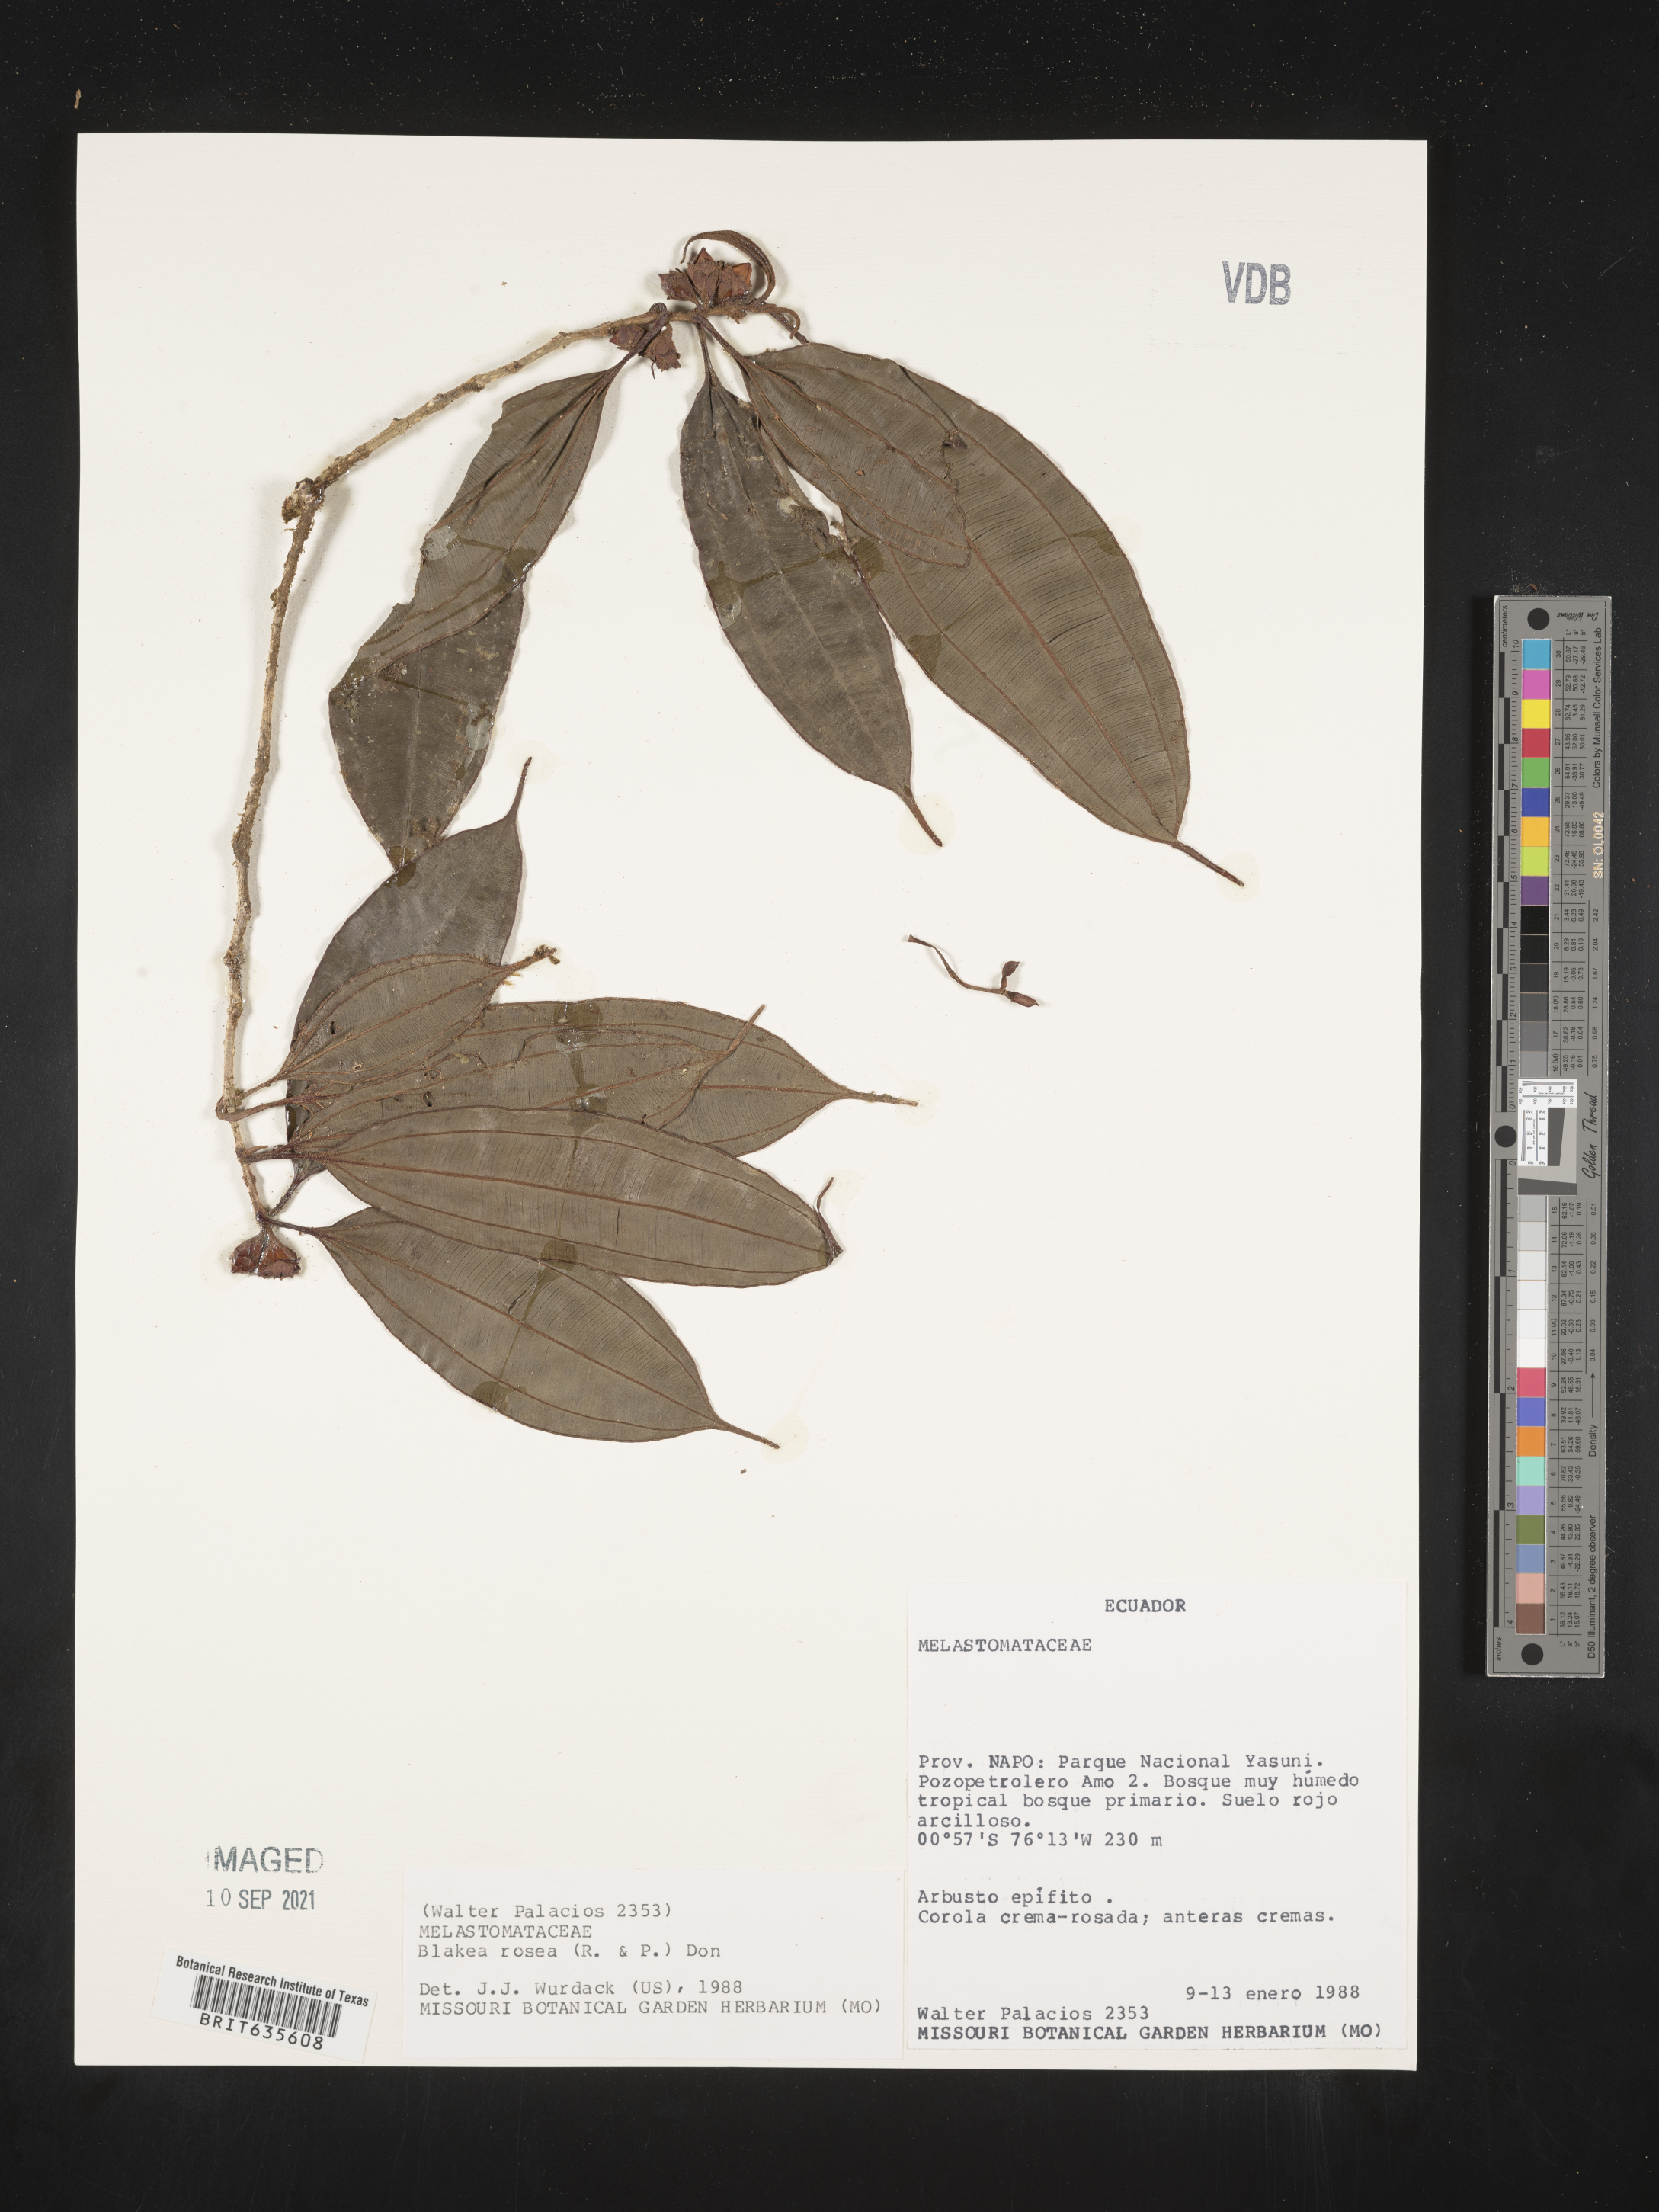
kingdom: Plantae
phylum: Tracheophyta
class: Magnoliopsida
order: Myrtales
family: Melastomataceae
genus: Blakea
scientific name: Blakea
